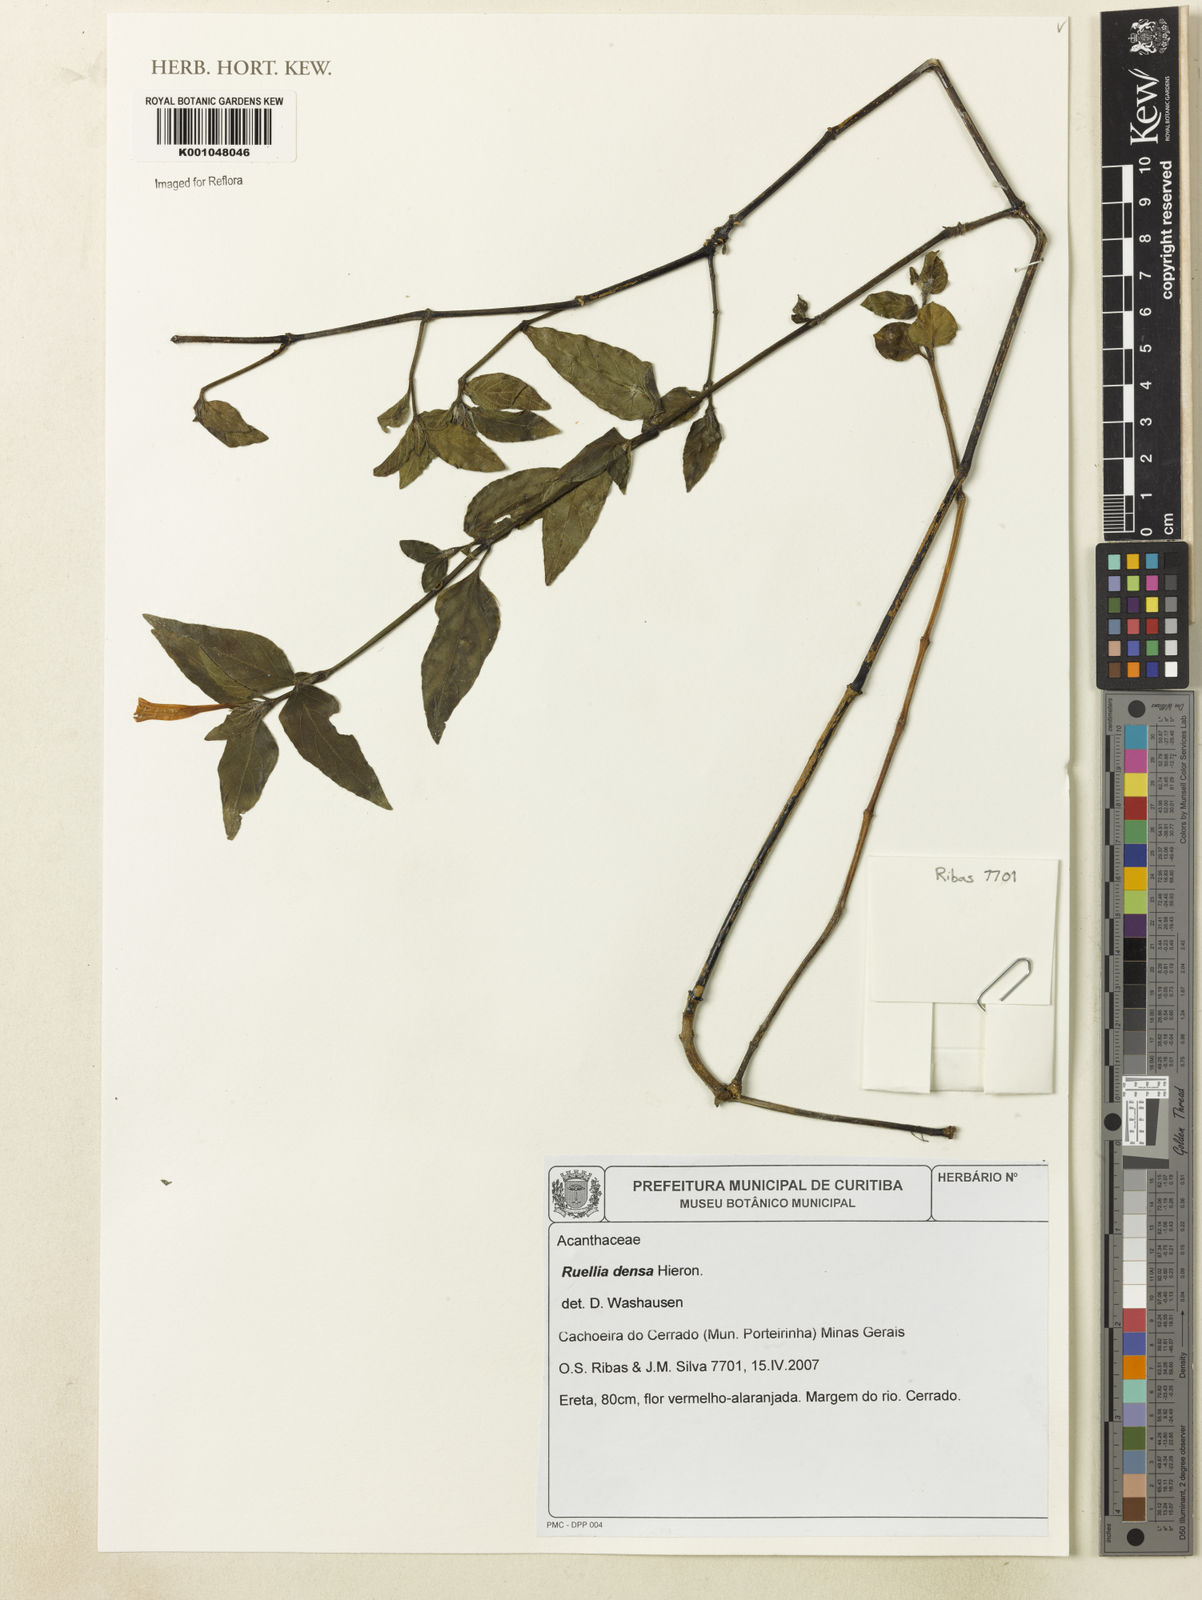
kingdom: Plantae
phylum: Tracheophyta
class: Magnoliopsida
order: Lamiales
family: Acanthaceae
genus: Ruellia
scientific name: Ruellia densa
